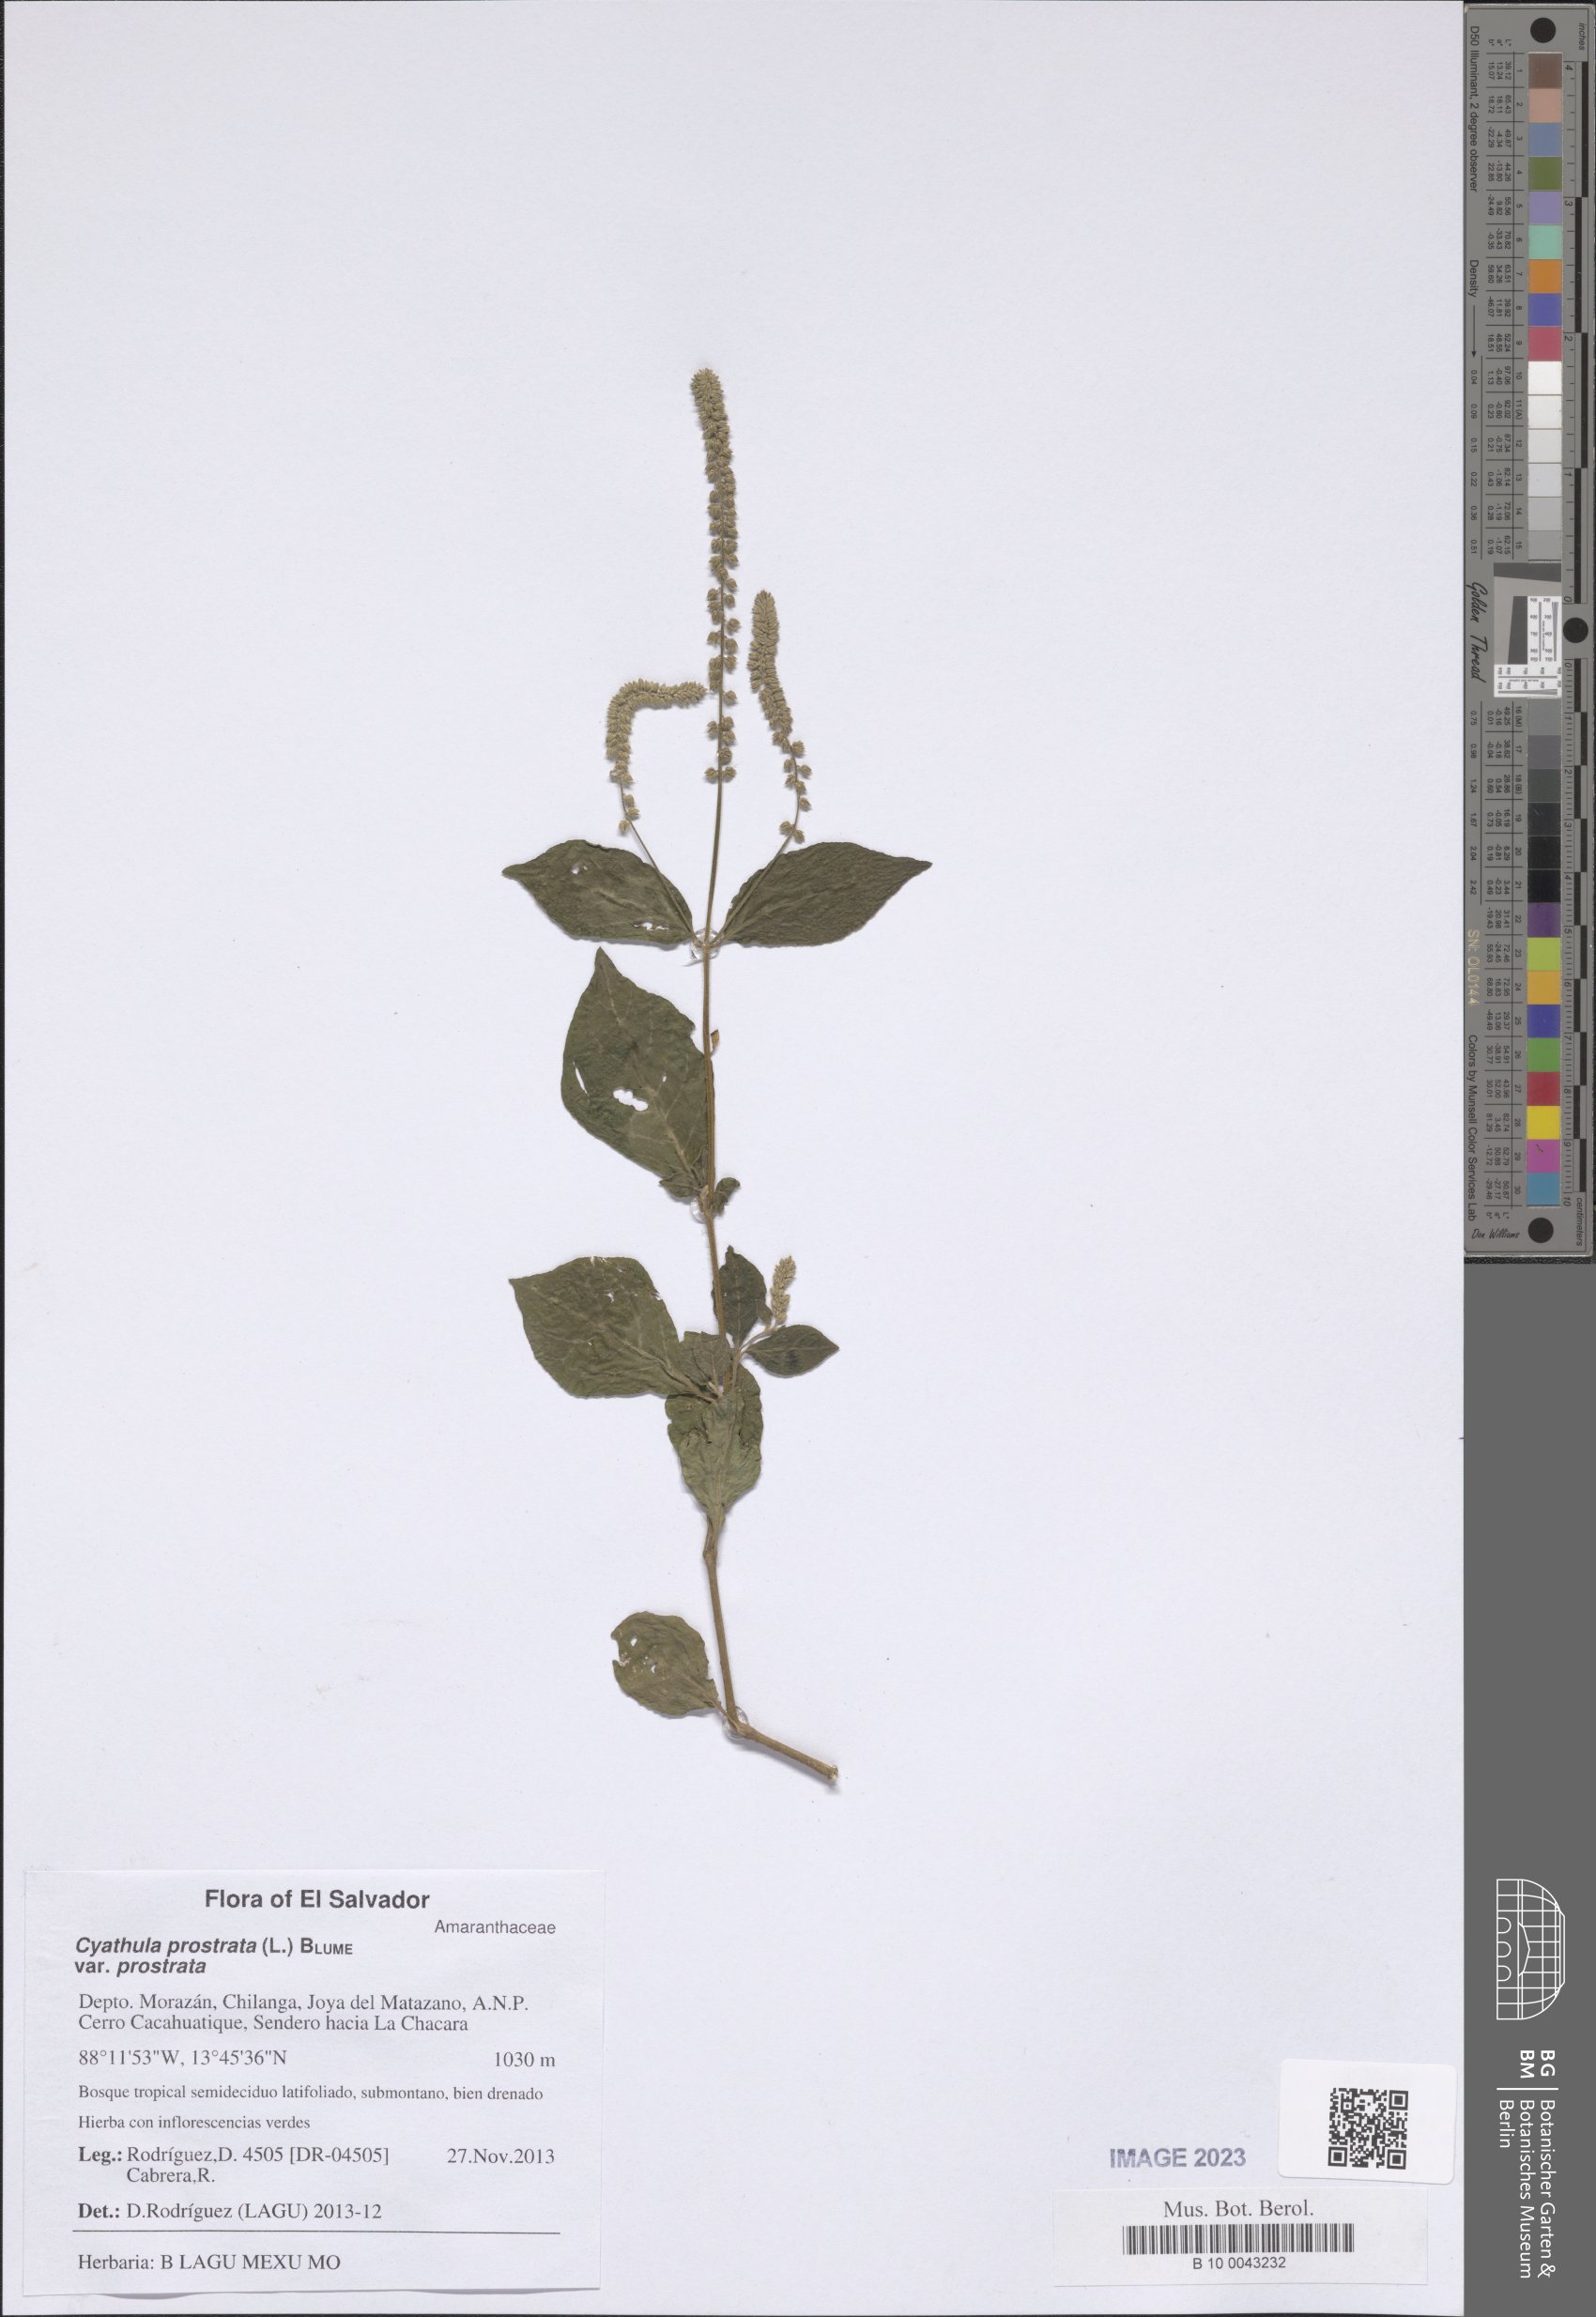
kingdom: Plantae
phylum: Tracheophyta
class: Magnoliopsida
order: Caryophyllales
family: Amaranthaceae
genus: Cyathula
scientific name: Cyathula prostrata
